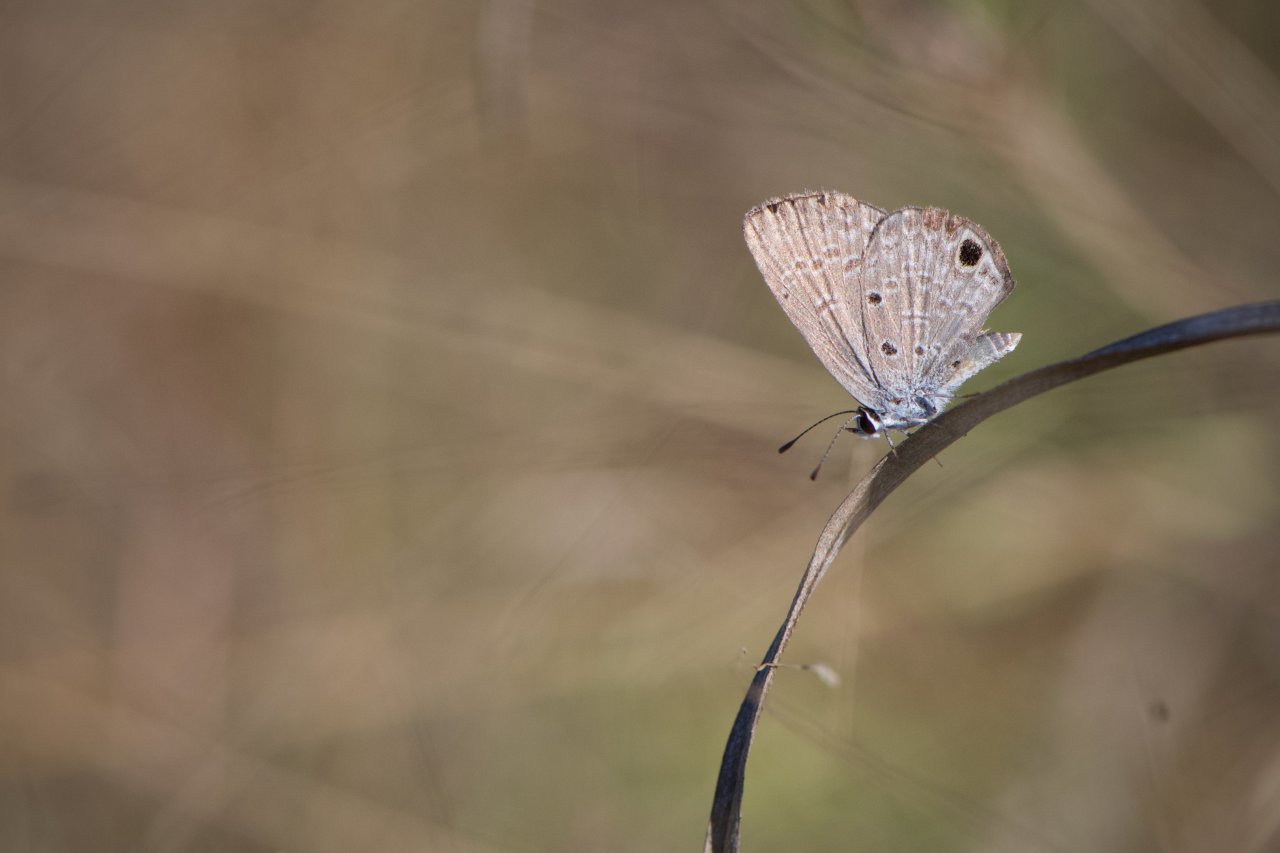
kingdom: Animalia
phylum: Arthropoda
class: Insecta
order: Lepidoptera
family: Lycaenidae
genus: Hemiargus
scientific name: Hemiargus ceraunus
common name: Ceraunus Blue
